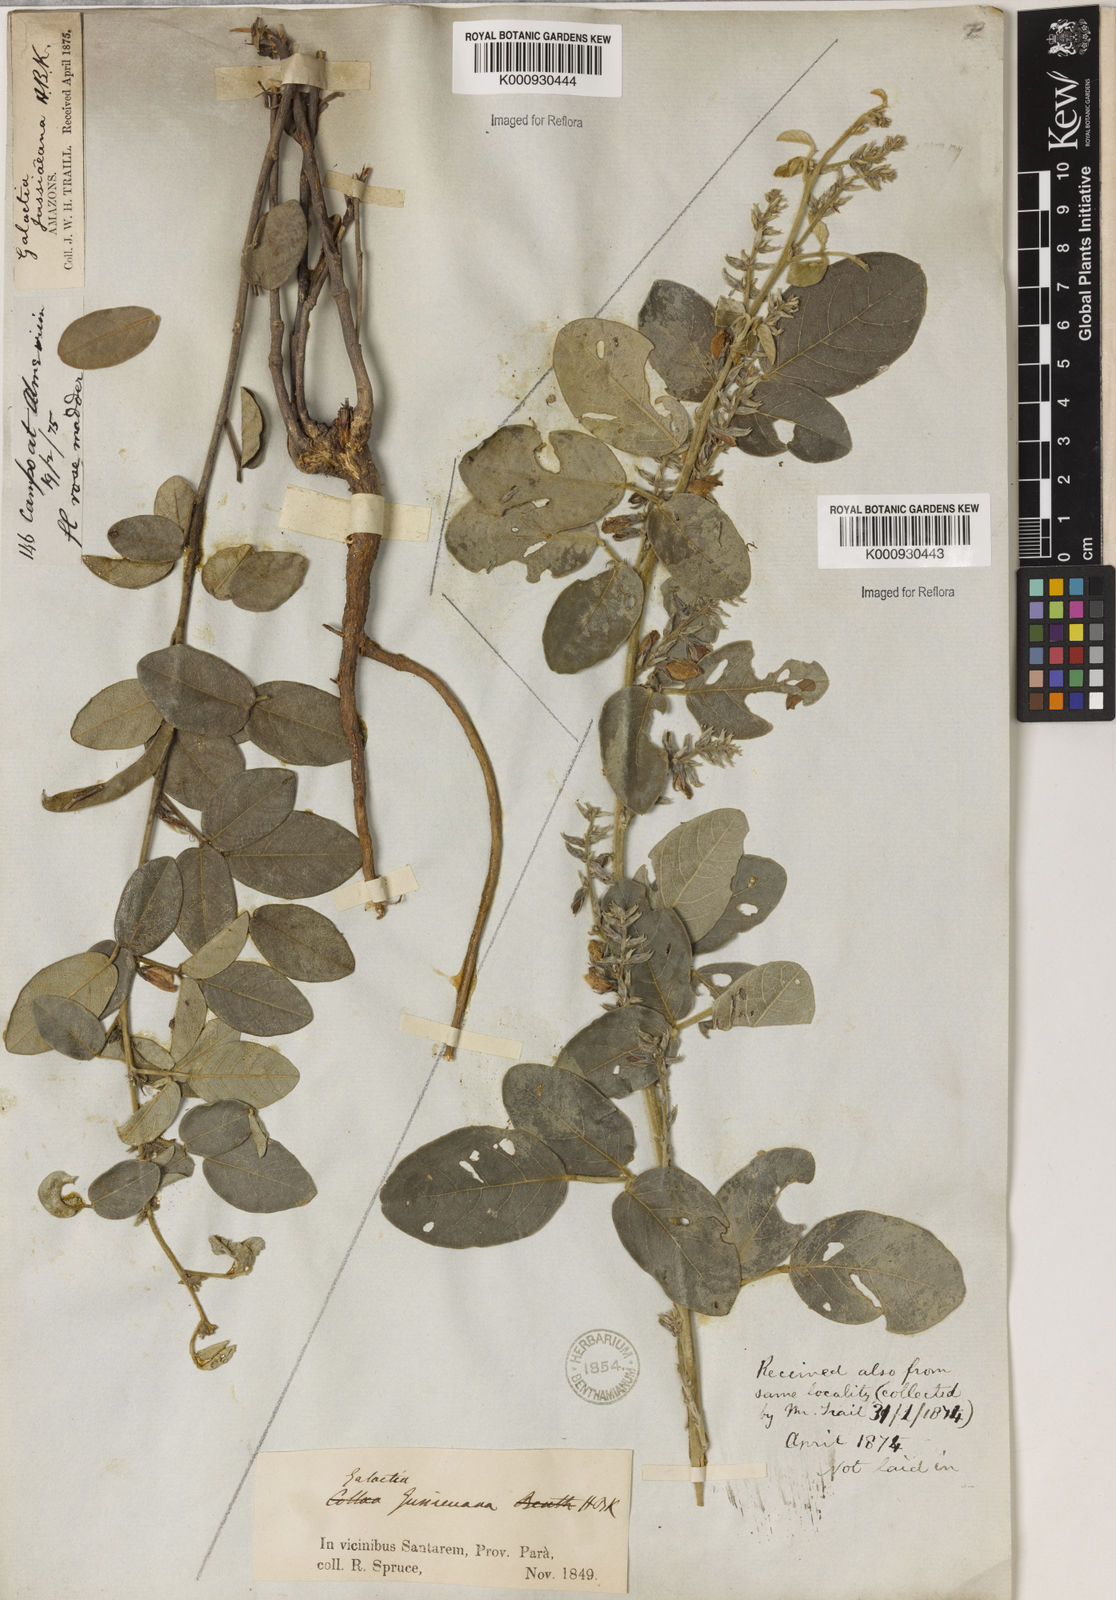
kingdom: Plantae
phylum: Tracheophyta
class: Magnoliopsida
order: Fabales
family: Fabaceae
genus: Galactia
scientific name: Galactia jussiaeana
